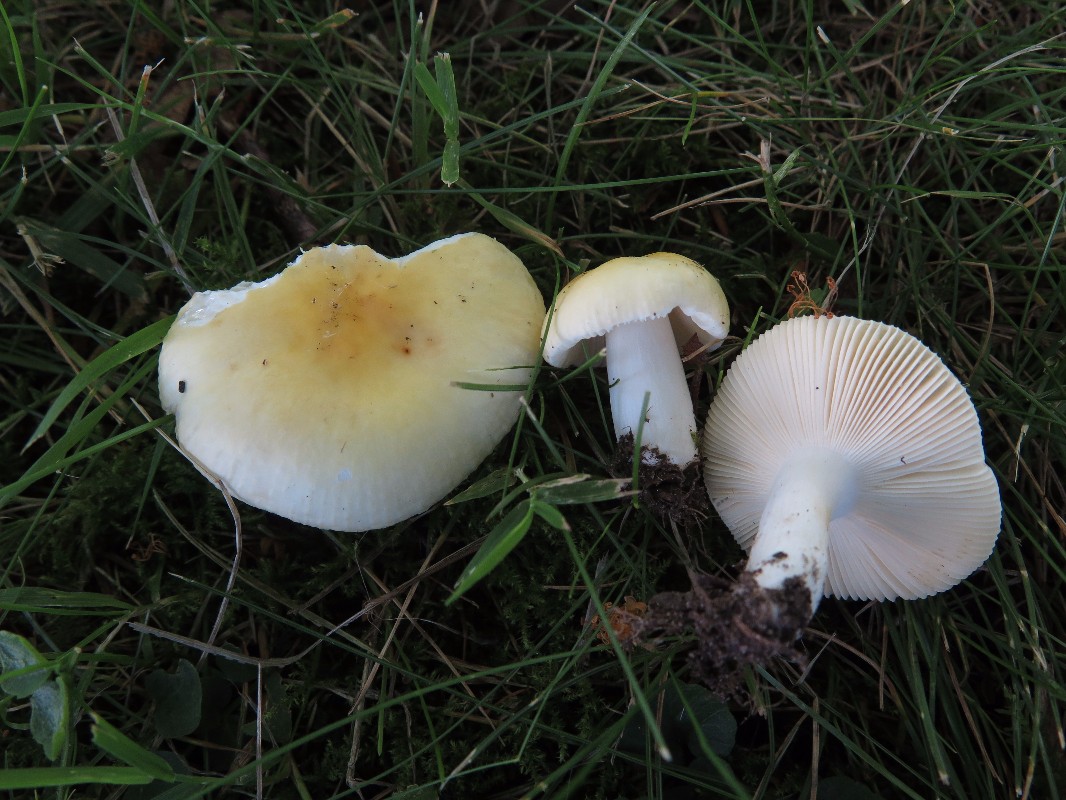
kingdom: Fungi
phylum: Basidiomycota
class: Agaricomycetes
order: Russulales
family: Russulaceae
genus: Russula
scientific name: Russula solaris
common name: sol-skørhat
